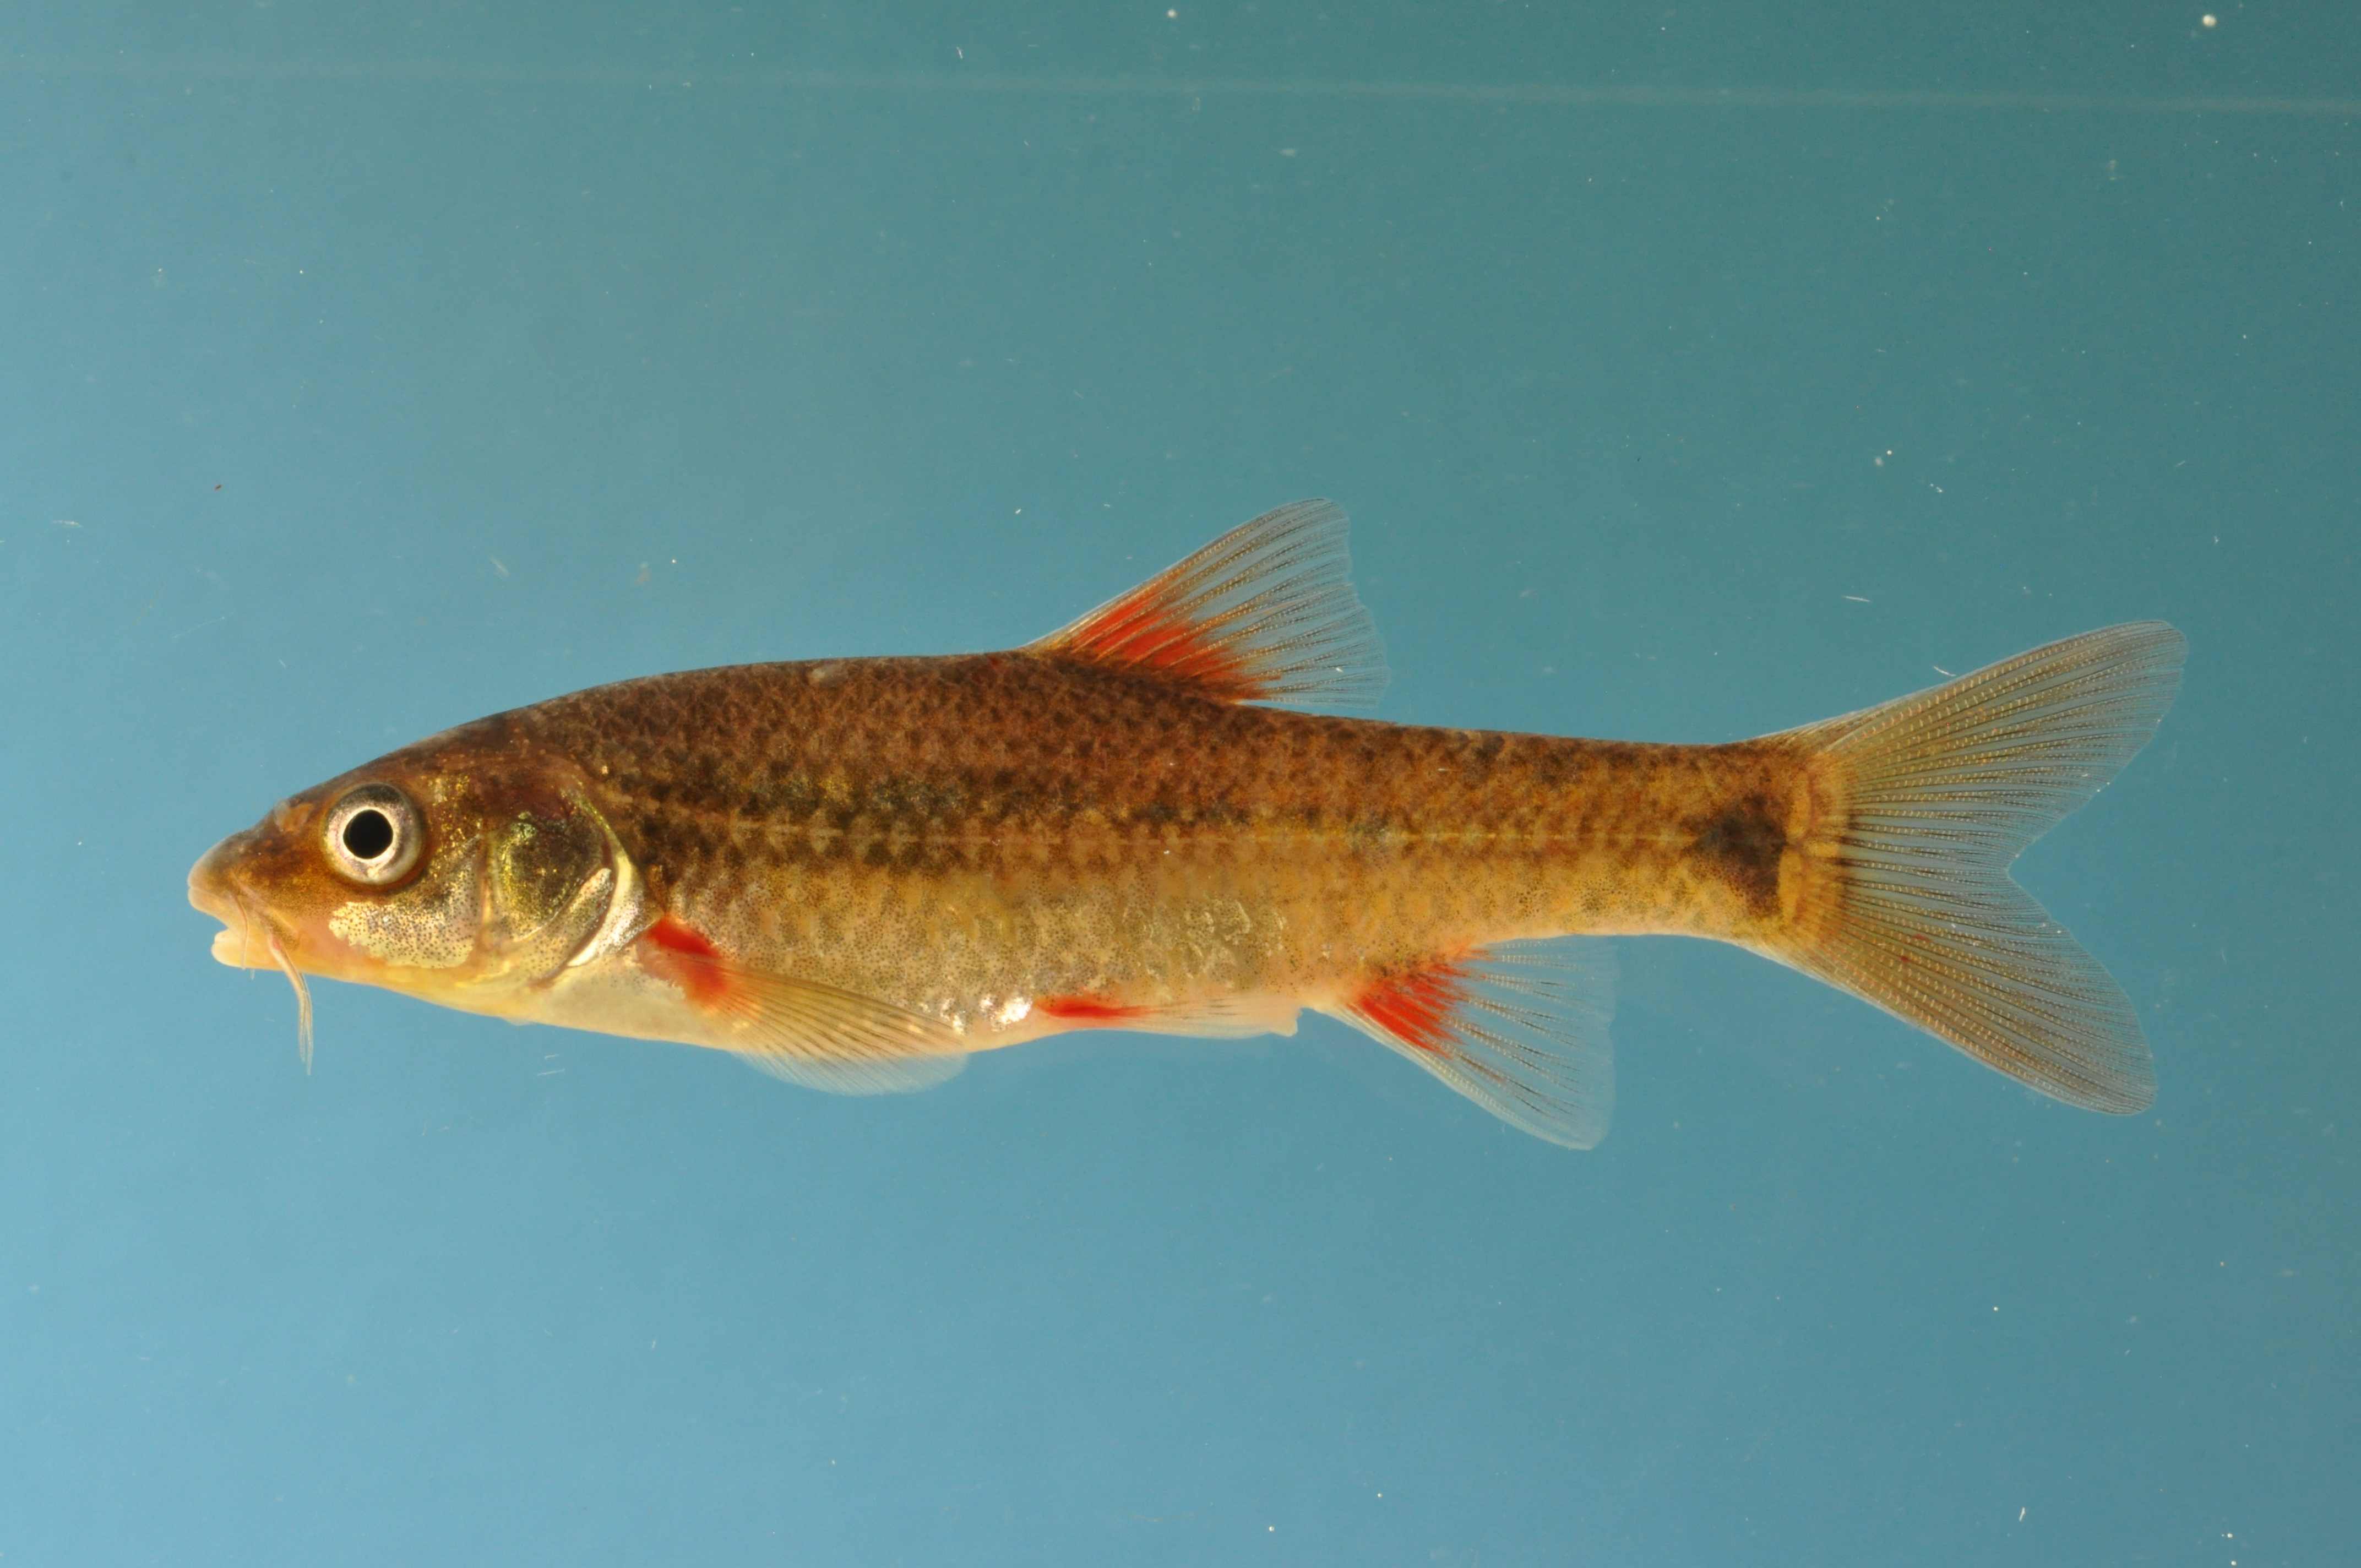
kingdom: Animalia
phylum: Chordata
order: Cypriniformes
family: Cyprinidae
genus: Pseudobarbus
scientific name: Pseudobarbus burchelli
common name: Burchell's redfin
